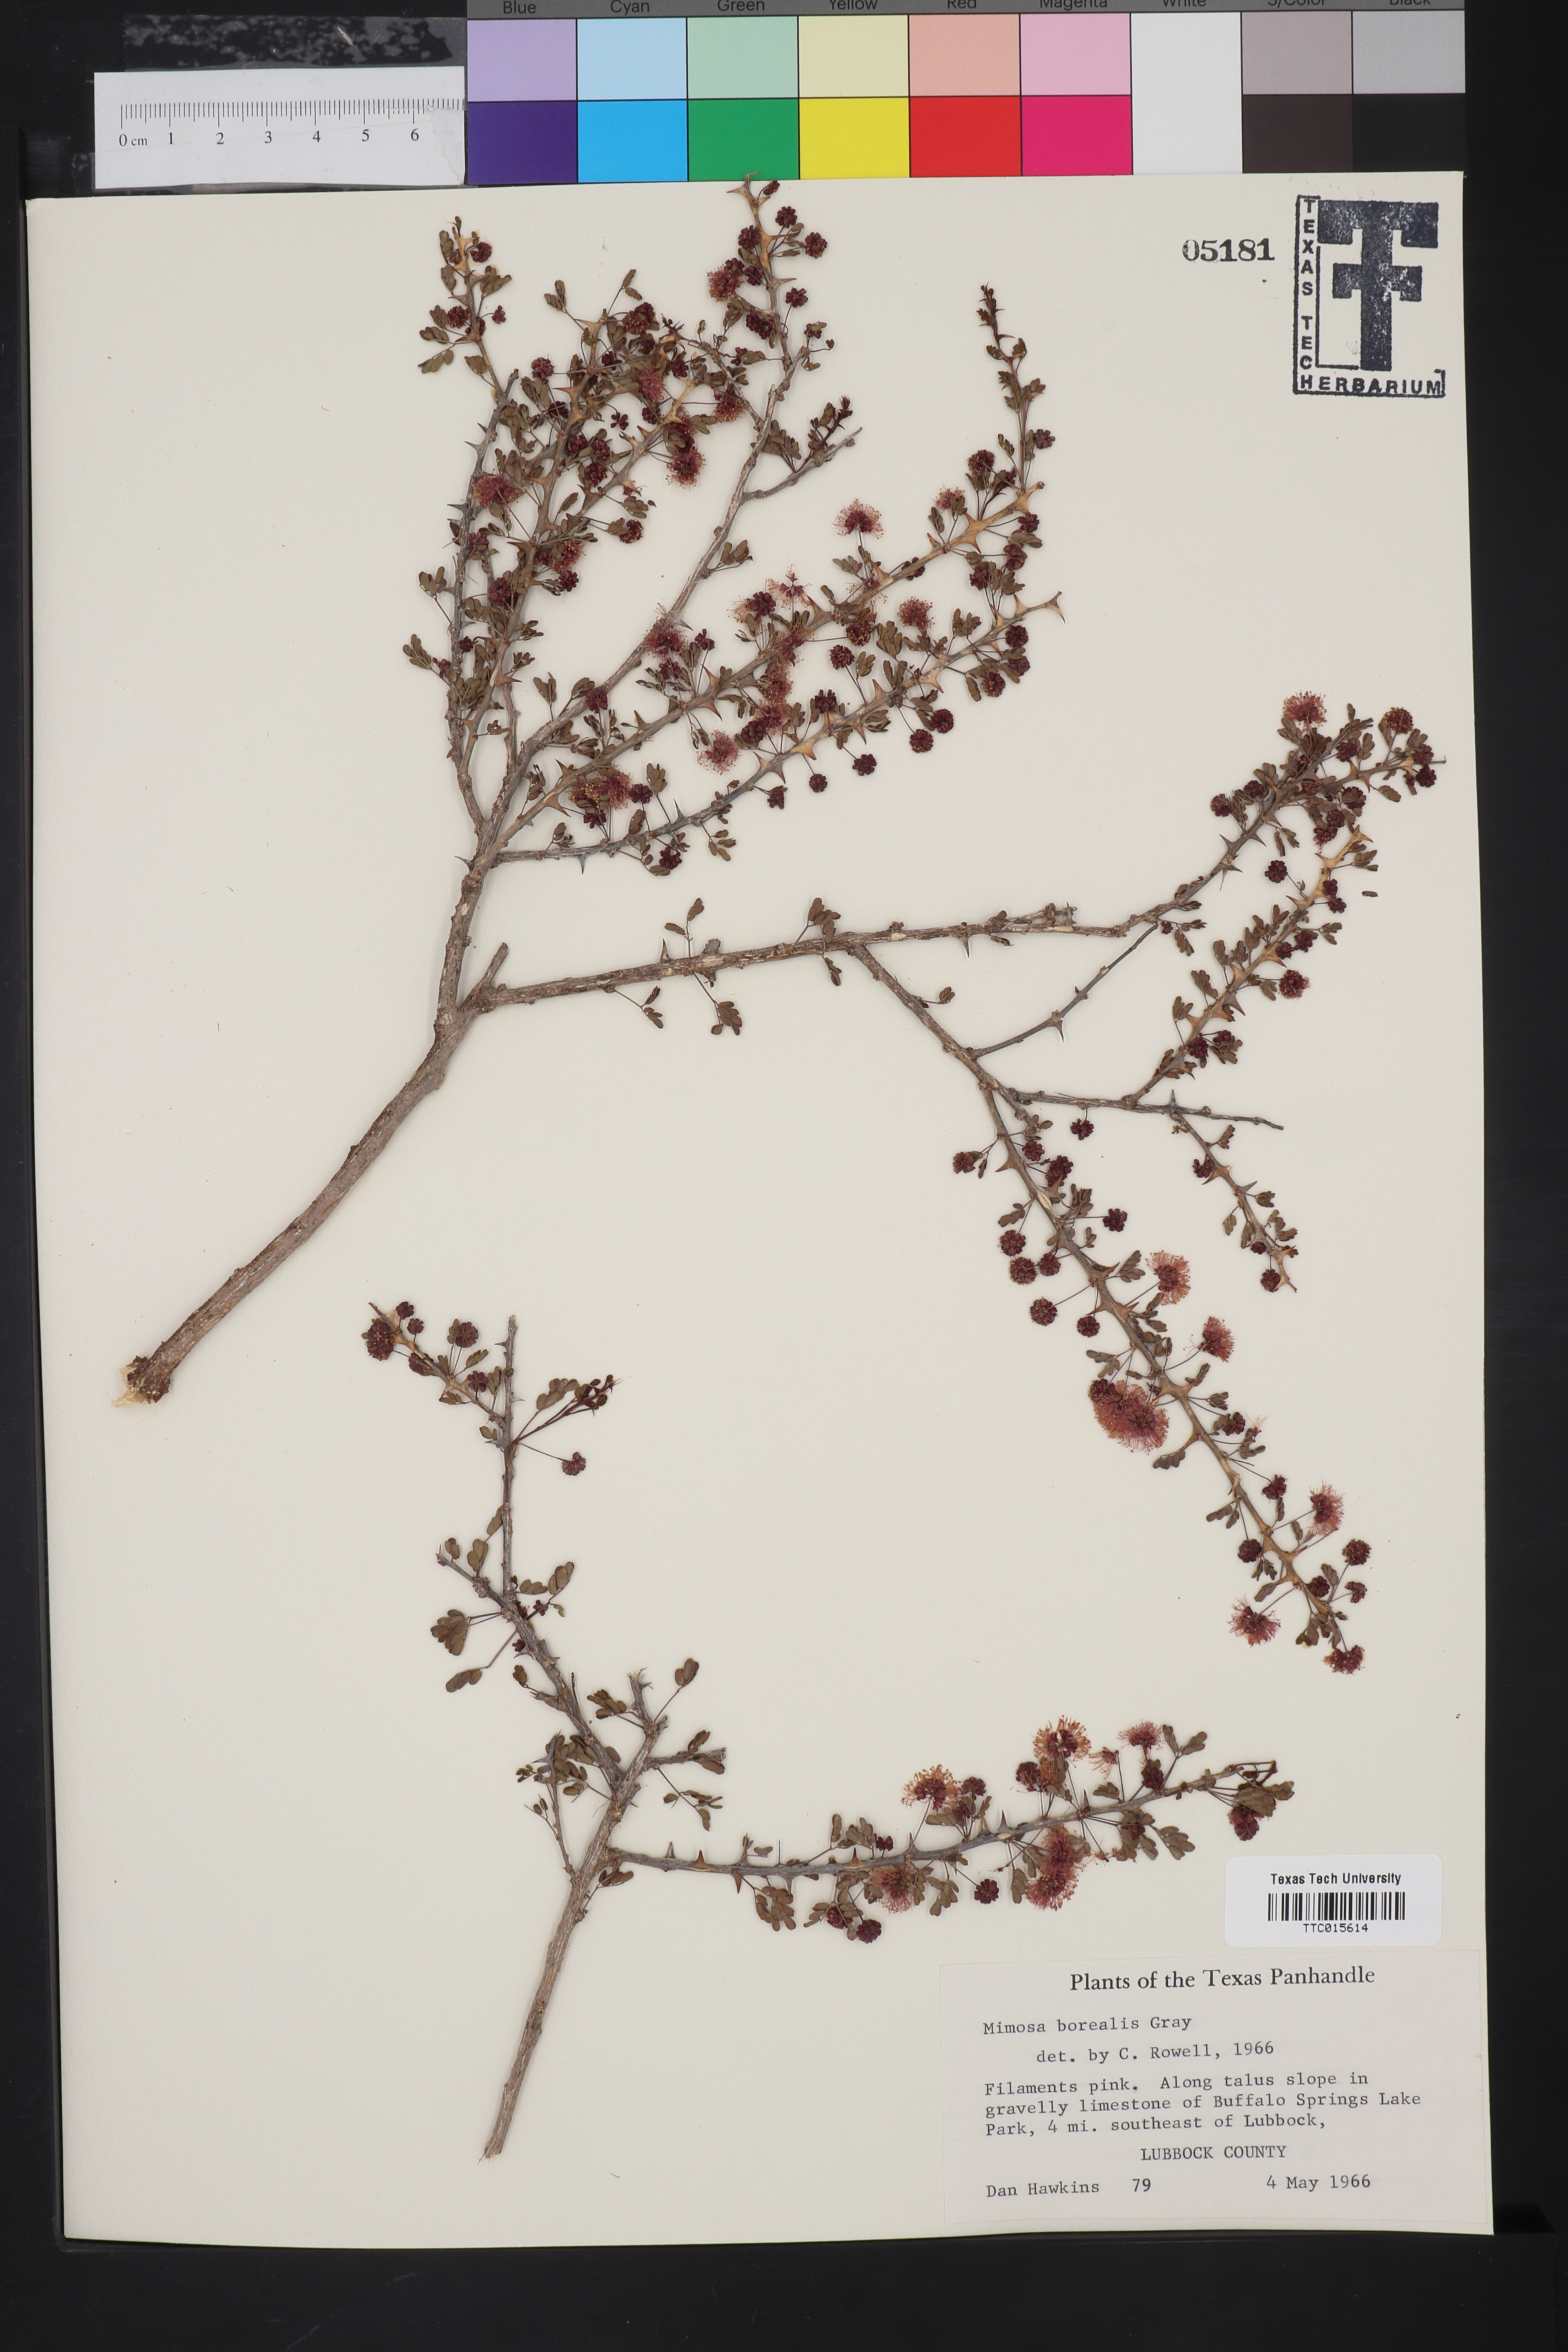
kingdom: Plantae
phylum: Tracheophyta
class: Magnoliopsida
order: Fabales
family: Fabaceae
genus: Mimosa
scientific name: Mimosa borealis
